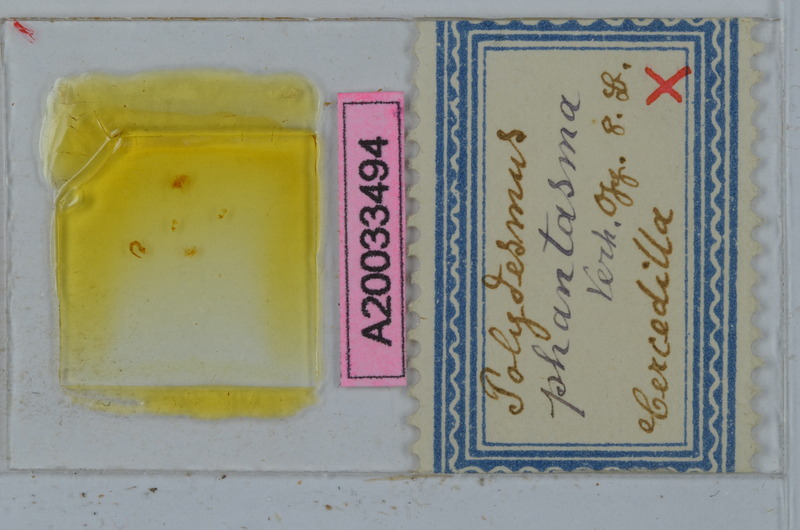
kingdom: Animalia
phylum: Arthropoda
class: Diplopoda
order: Polydesmida
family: Polydesmidae
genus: Schizomeritius
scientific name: Schizomeritius phantasma
